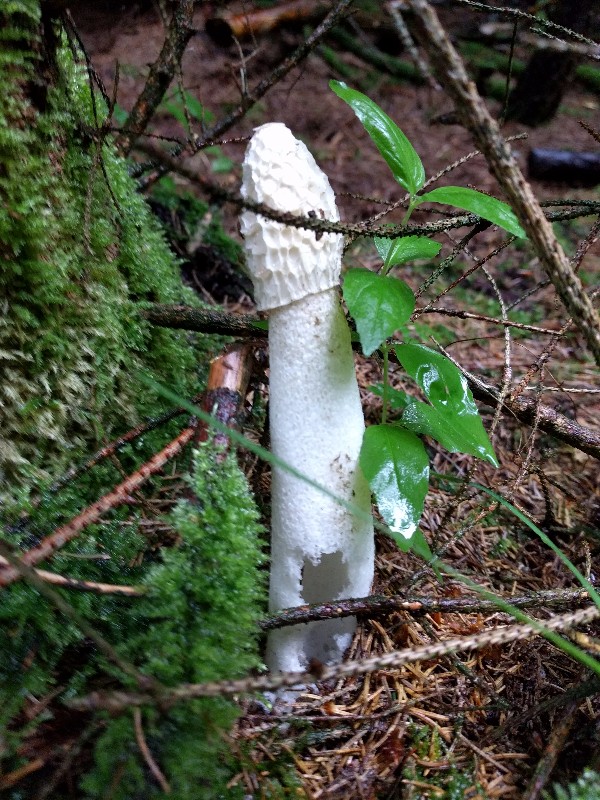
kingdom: Fungi
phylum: Basidiomycota
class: Agaricomycetes
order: Phallales
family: Phallaceae
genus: Phallus
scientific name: Phallus impudicus
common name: almindelig stinksvamp
